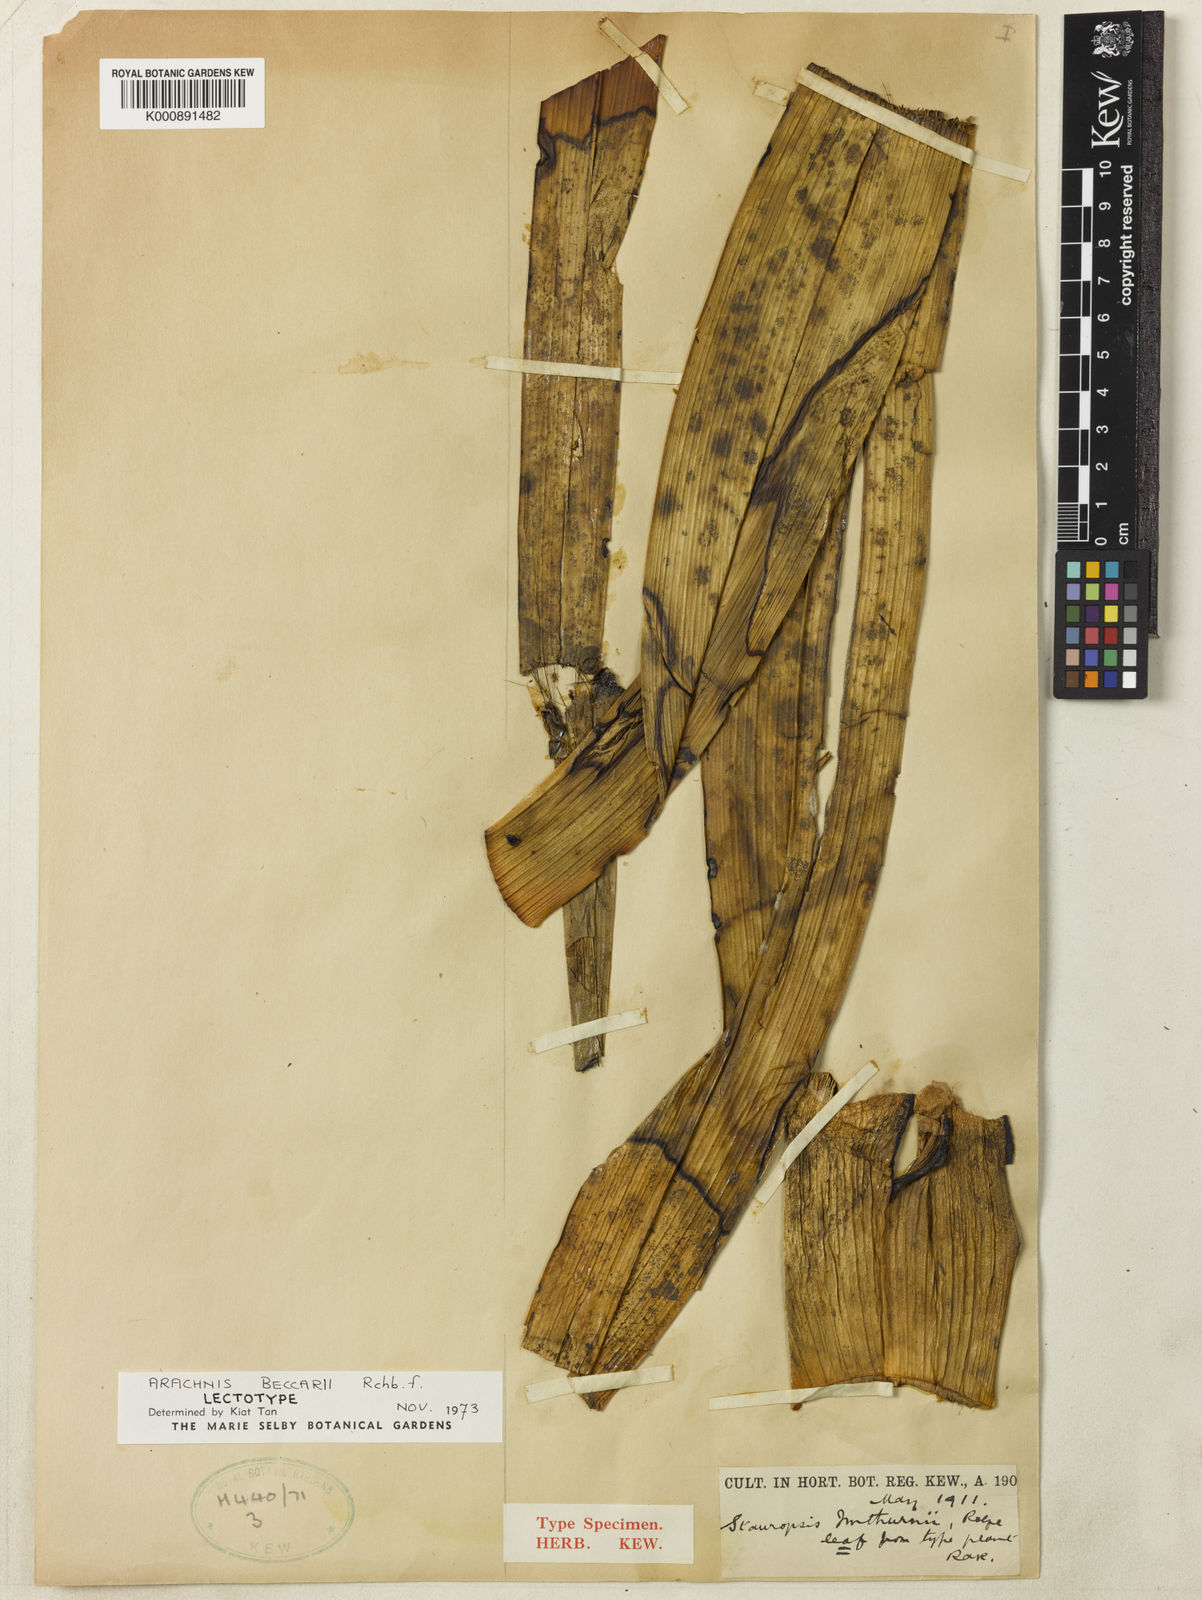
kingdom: Plantae
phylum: Tracheophyta
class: Liliopsida
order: Asparagales
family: Orchidaceae
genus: Dimorphorchis
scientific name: Dimorphorchis beccarii
